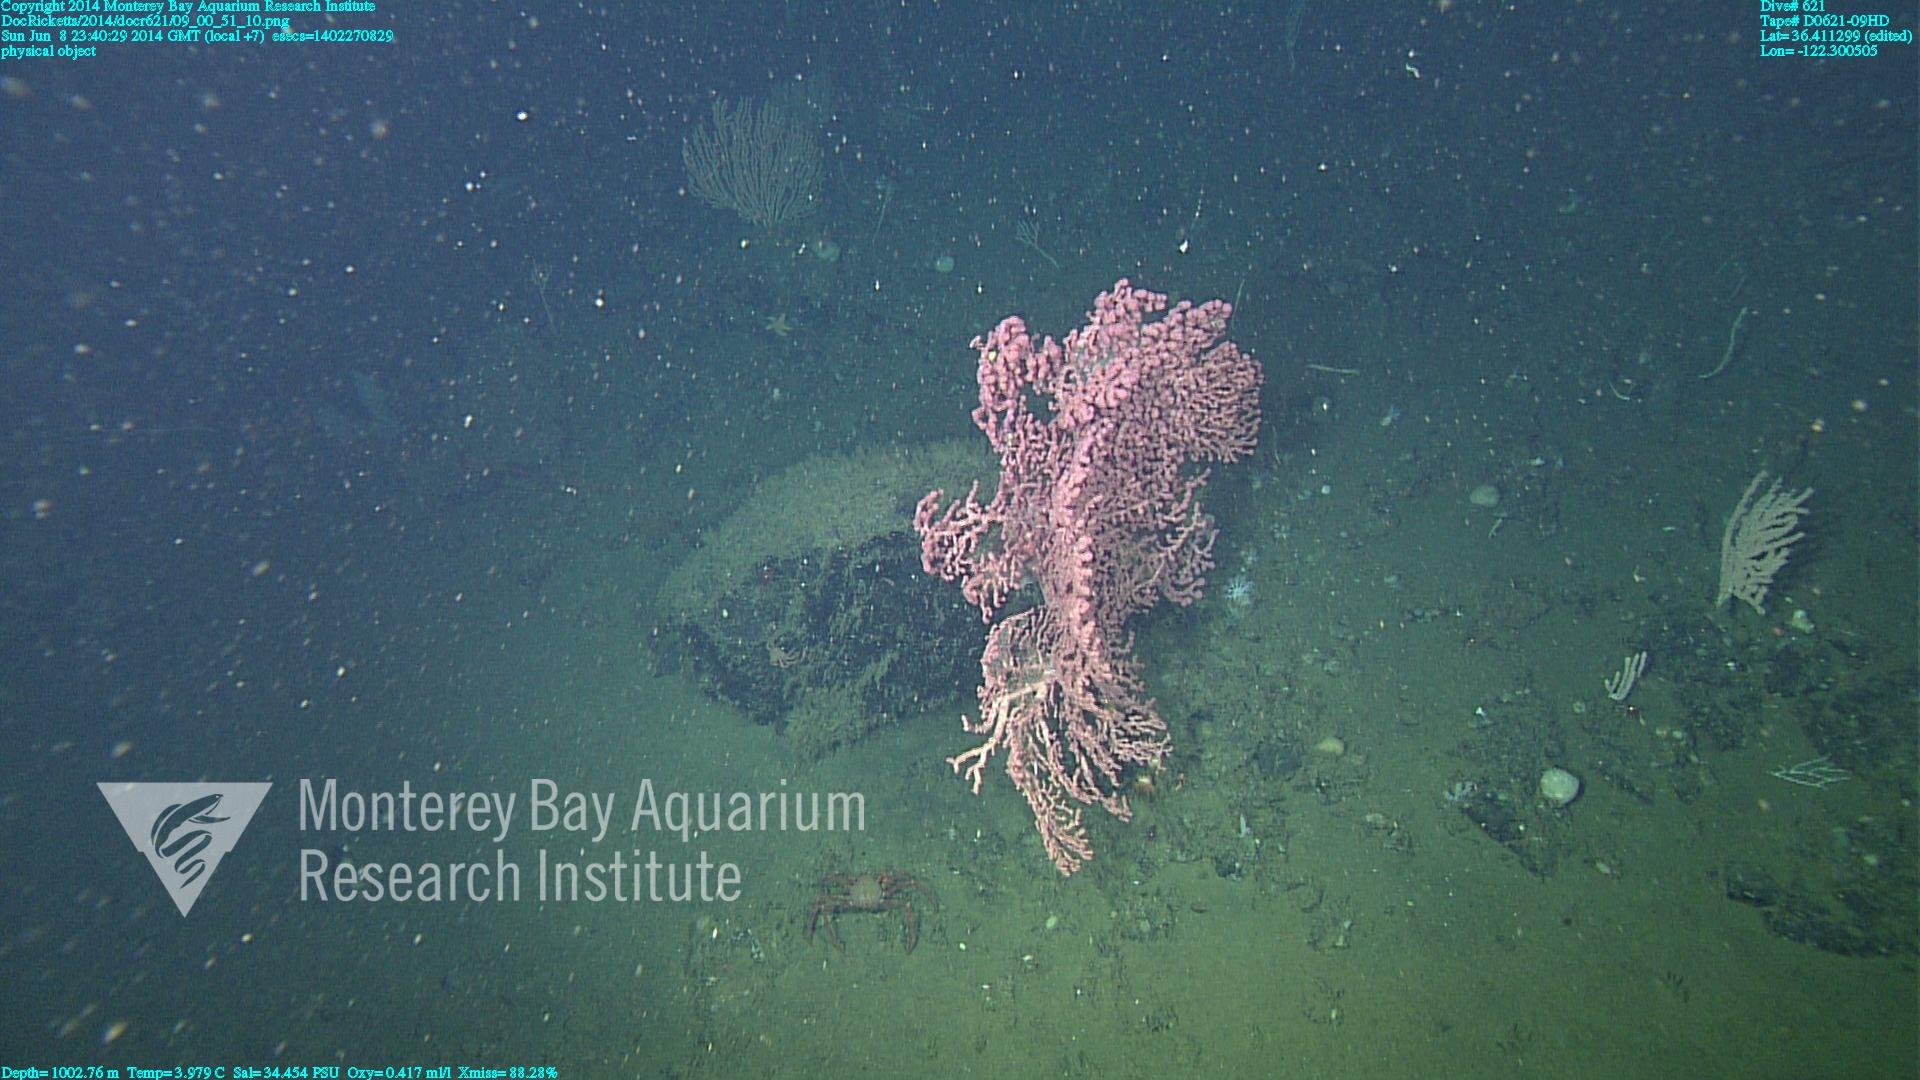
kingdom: Animalia
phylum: Cnidaria
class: Anthozoa
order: Scleralcyonacea
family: Coralliidae
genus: Paragorgia
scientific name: Paragorgia arborea
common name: Bubble gum coral
